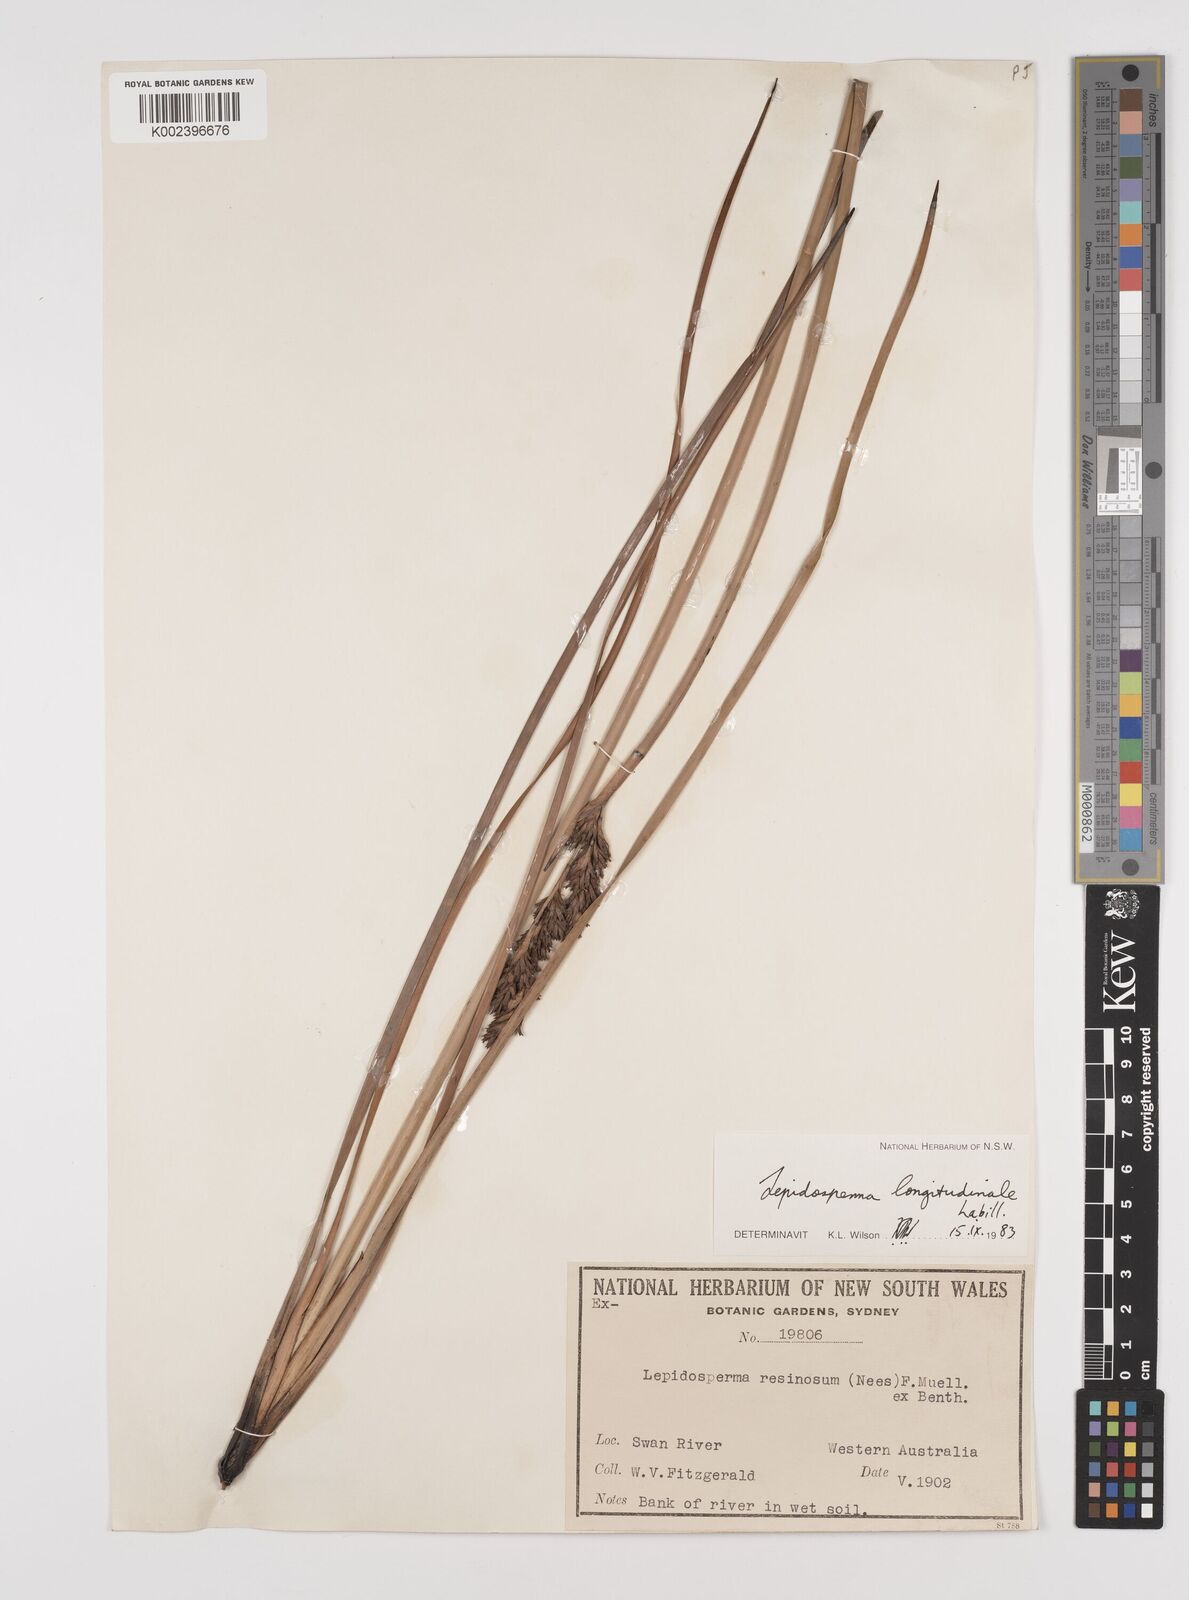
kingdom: Plantae
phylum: Tracheophyta
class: Liliopsida
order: Poales
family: Cyperaceae
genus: Lepidosperma
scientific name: Lepidosperma longitudinale
